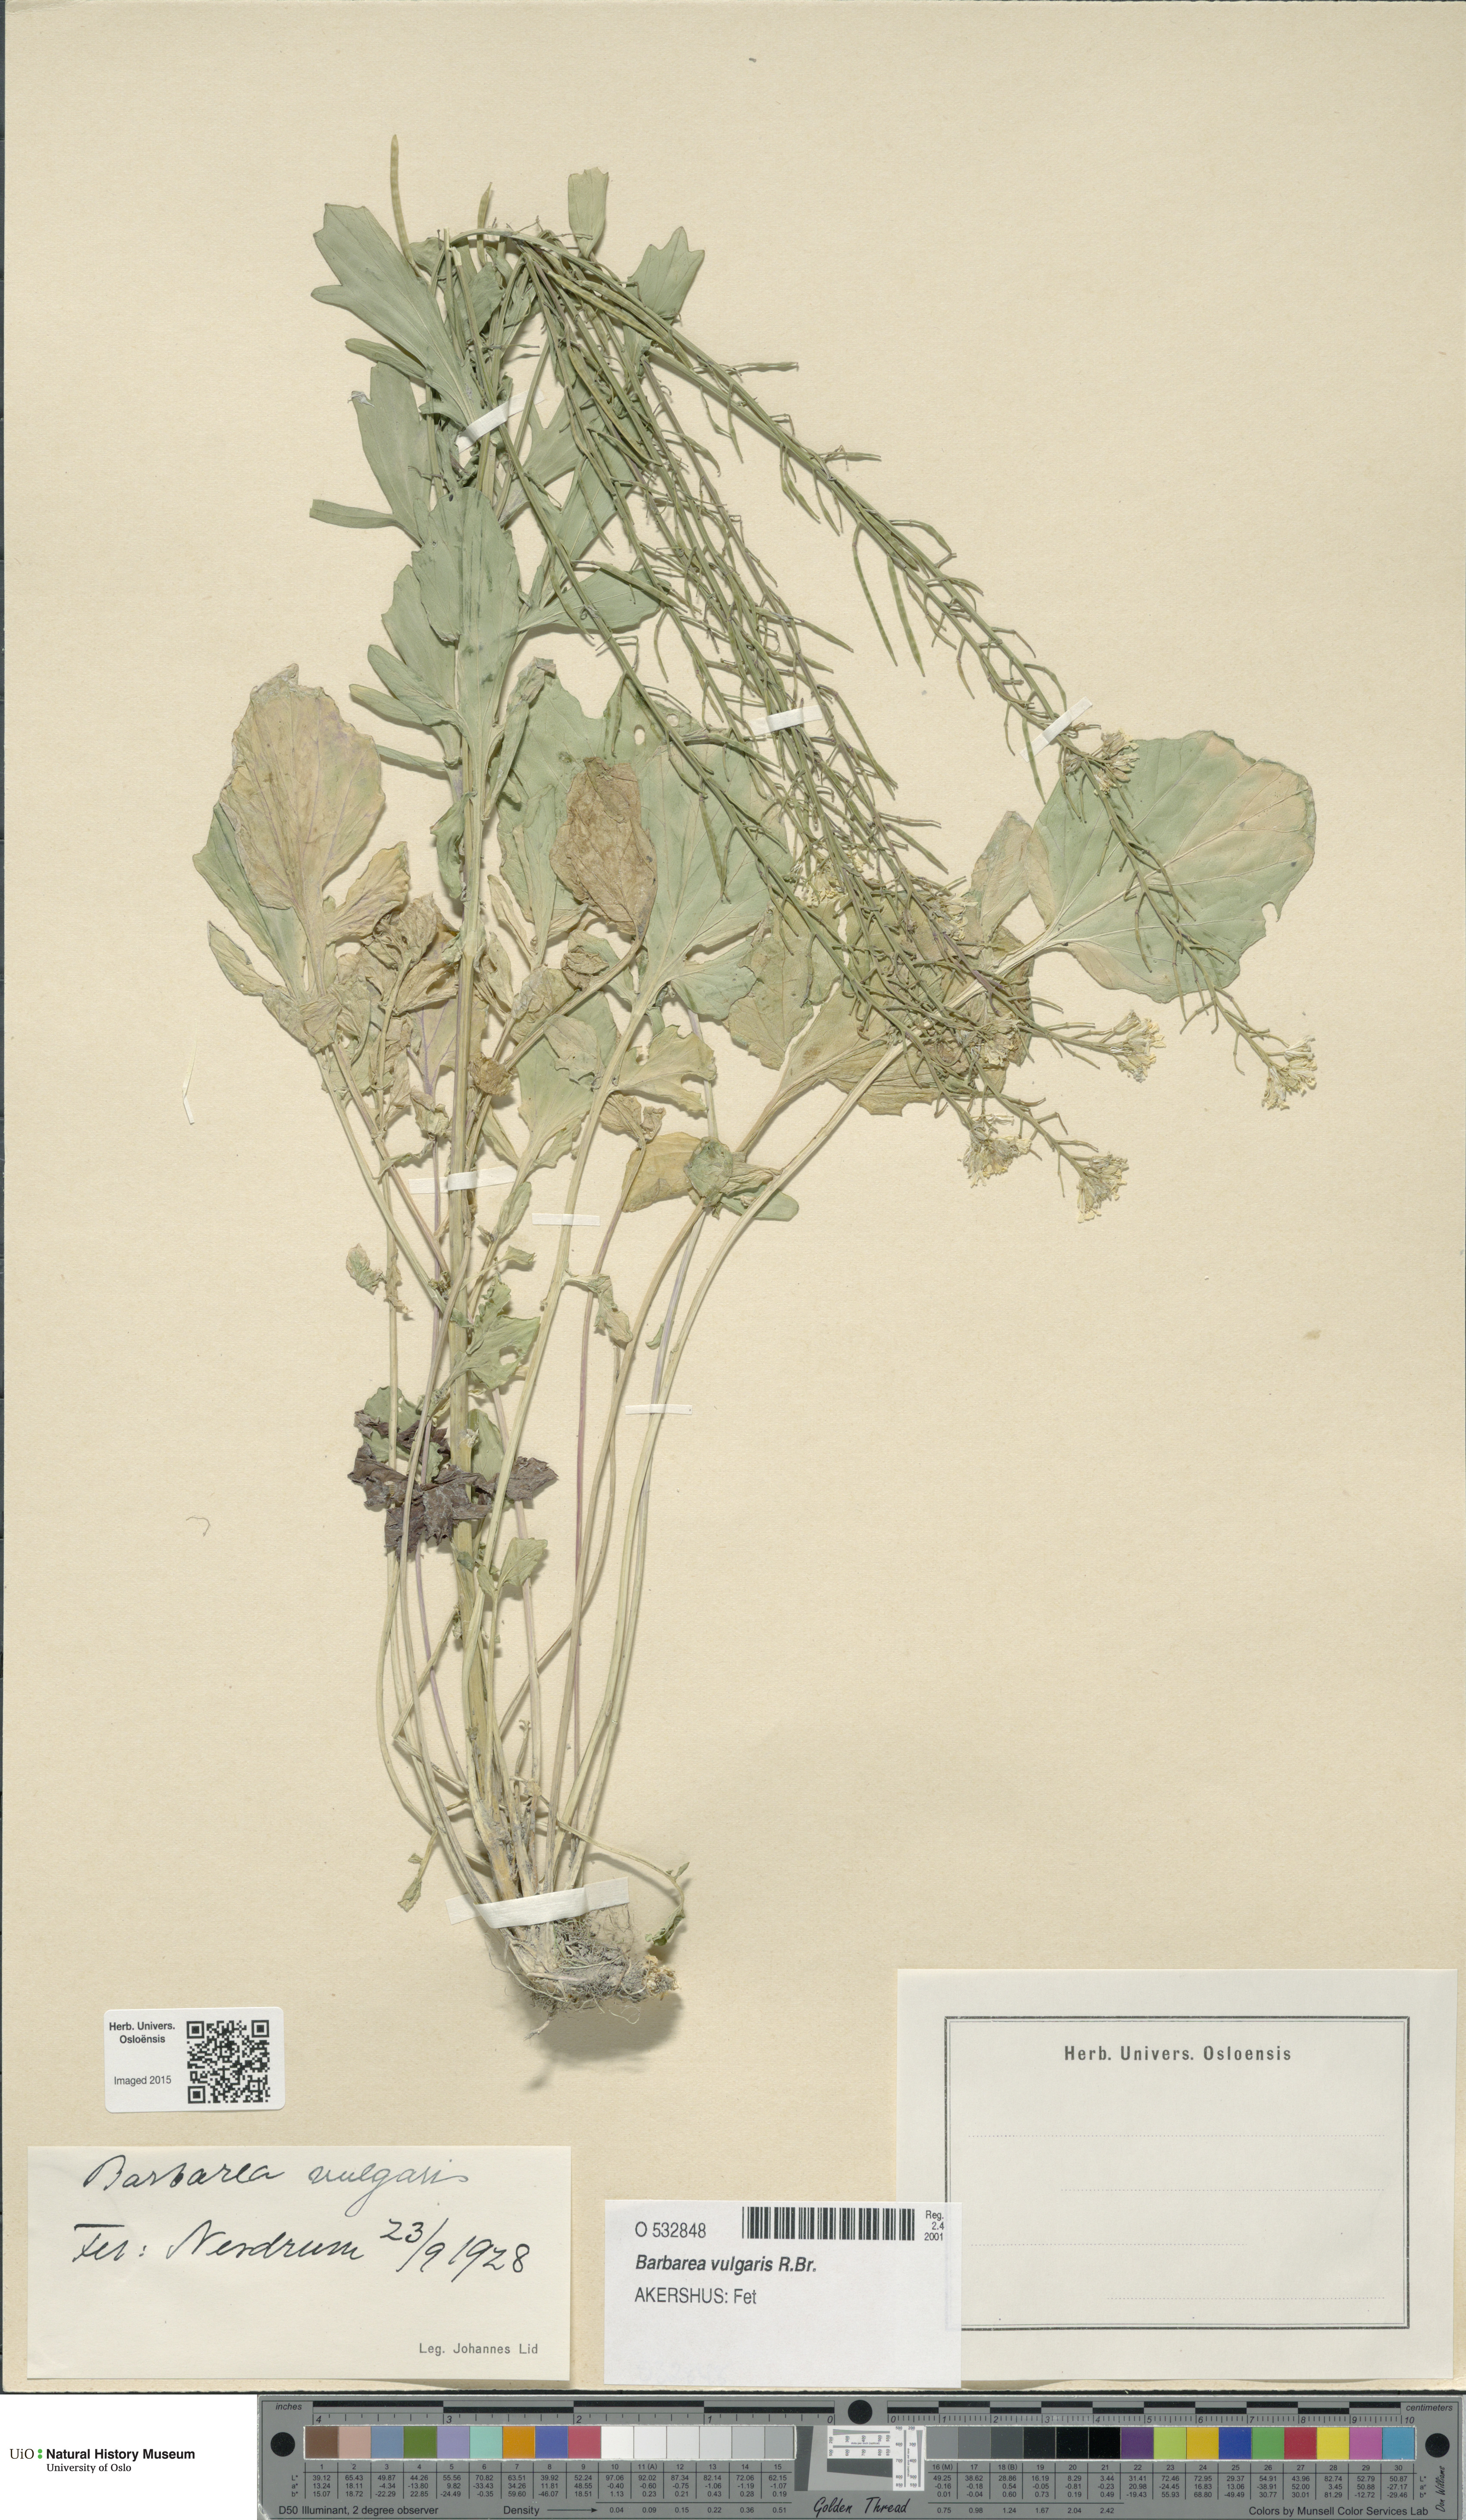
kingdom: Plantae
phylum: Tracheophyta
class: Magnoliopsida
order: Brassicales
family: Brassicaceae
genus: Barbarea
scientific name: Barbarea vulgaris
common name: Cressy-greens
